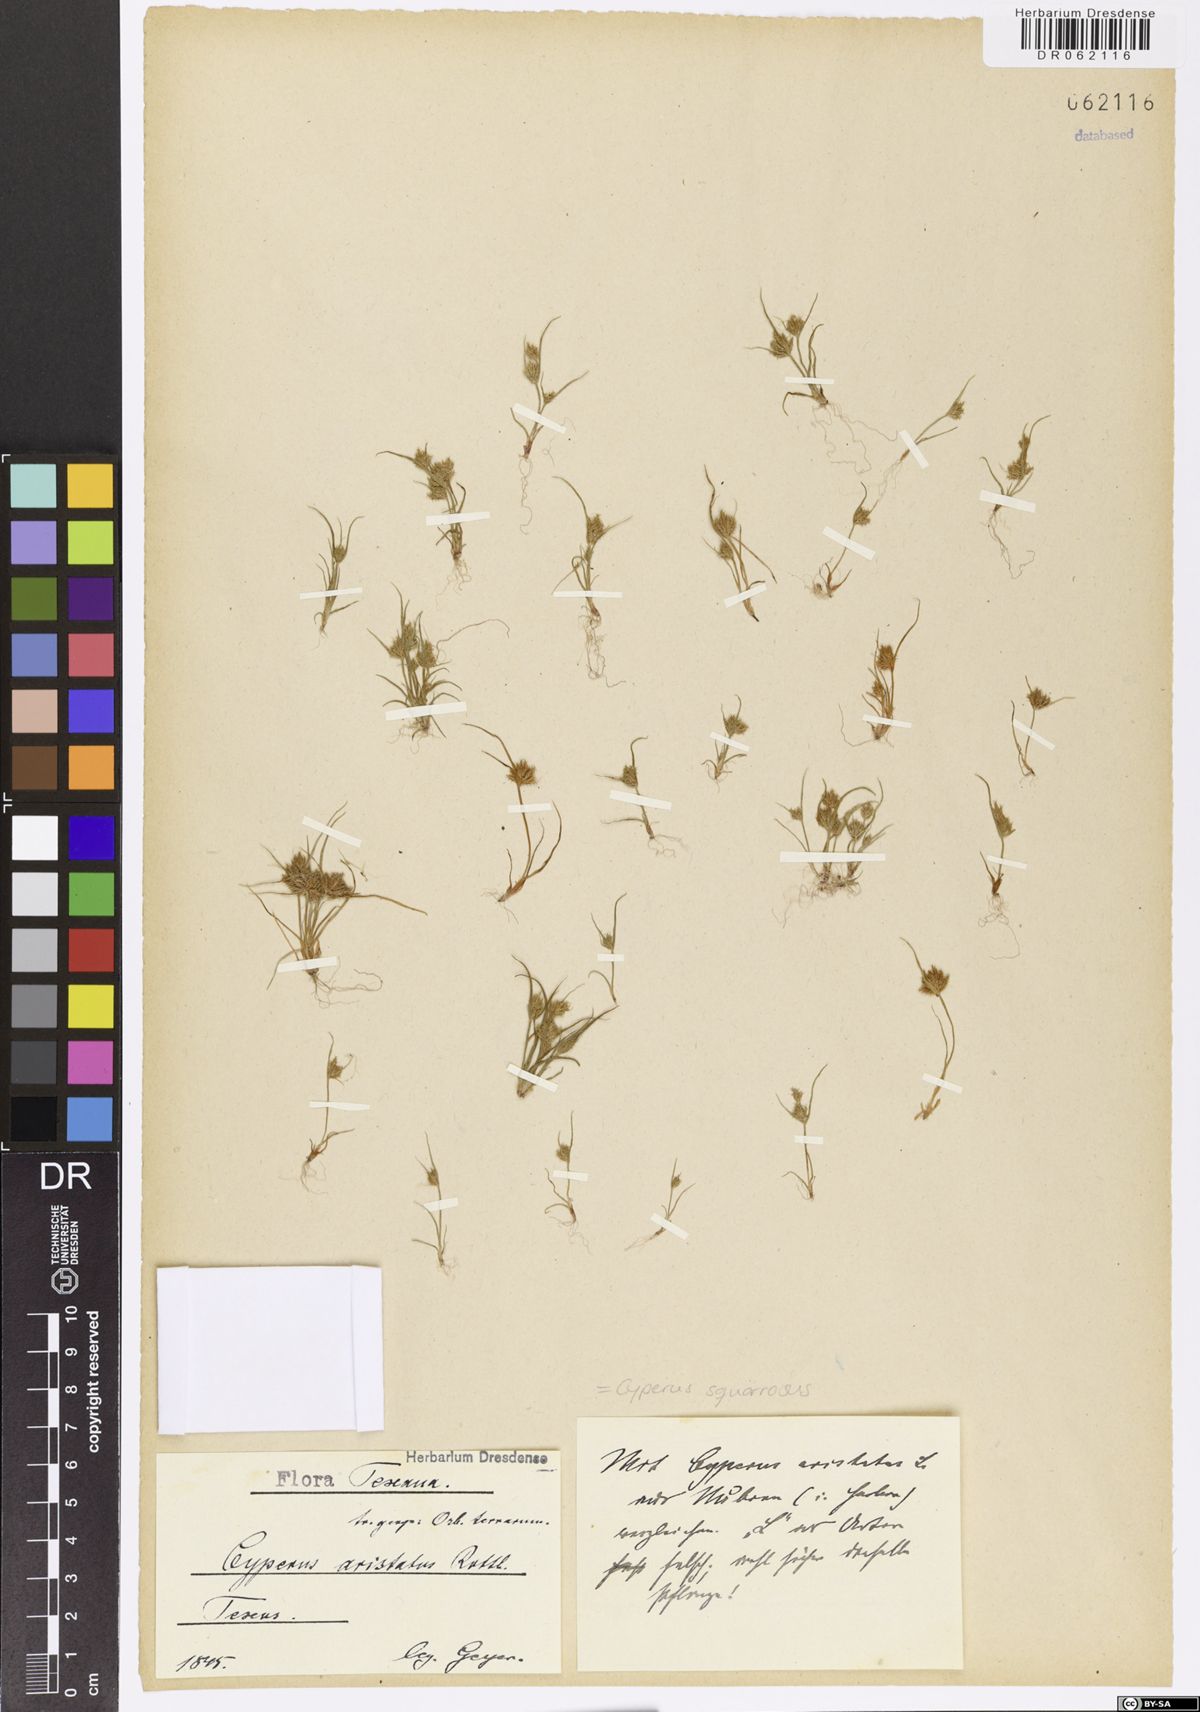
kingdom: Plantae
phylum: Tracheophyta
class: Liliopsida
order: Poales
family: Cyperaceae
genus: Cyperus
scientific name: Cyperus squarrosus
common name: Awned cyperus
